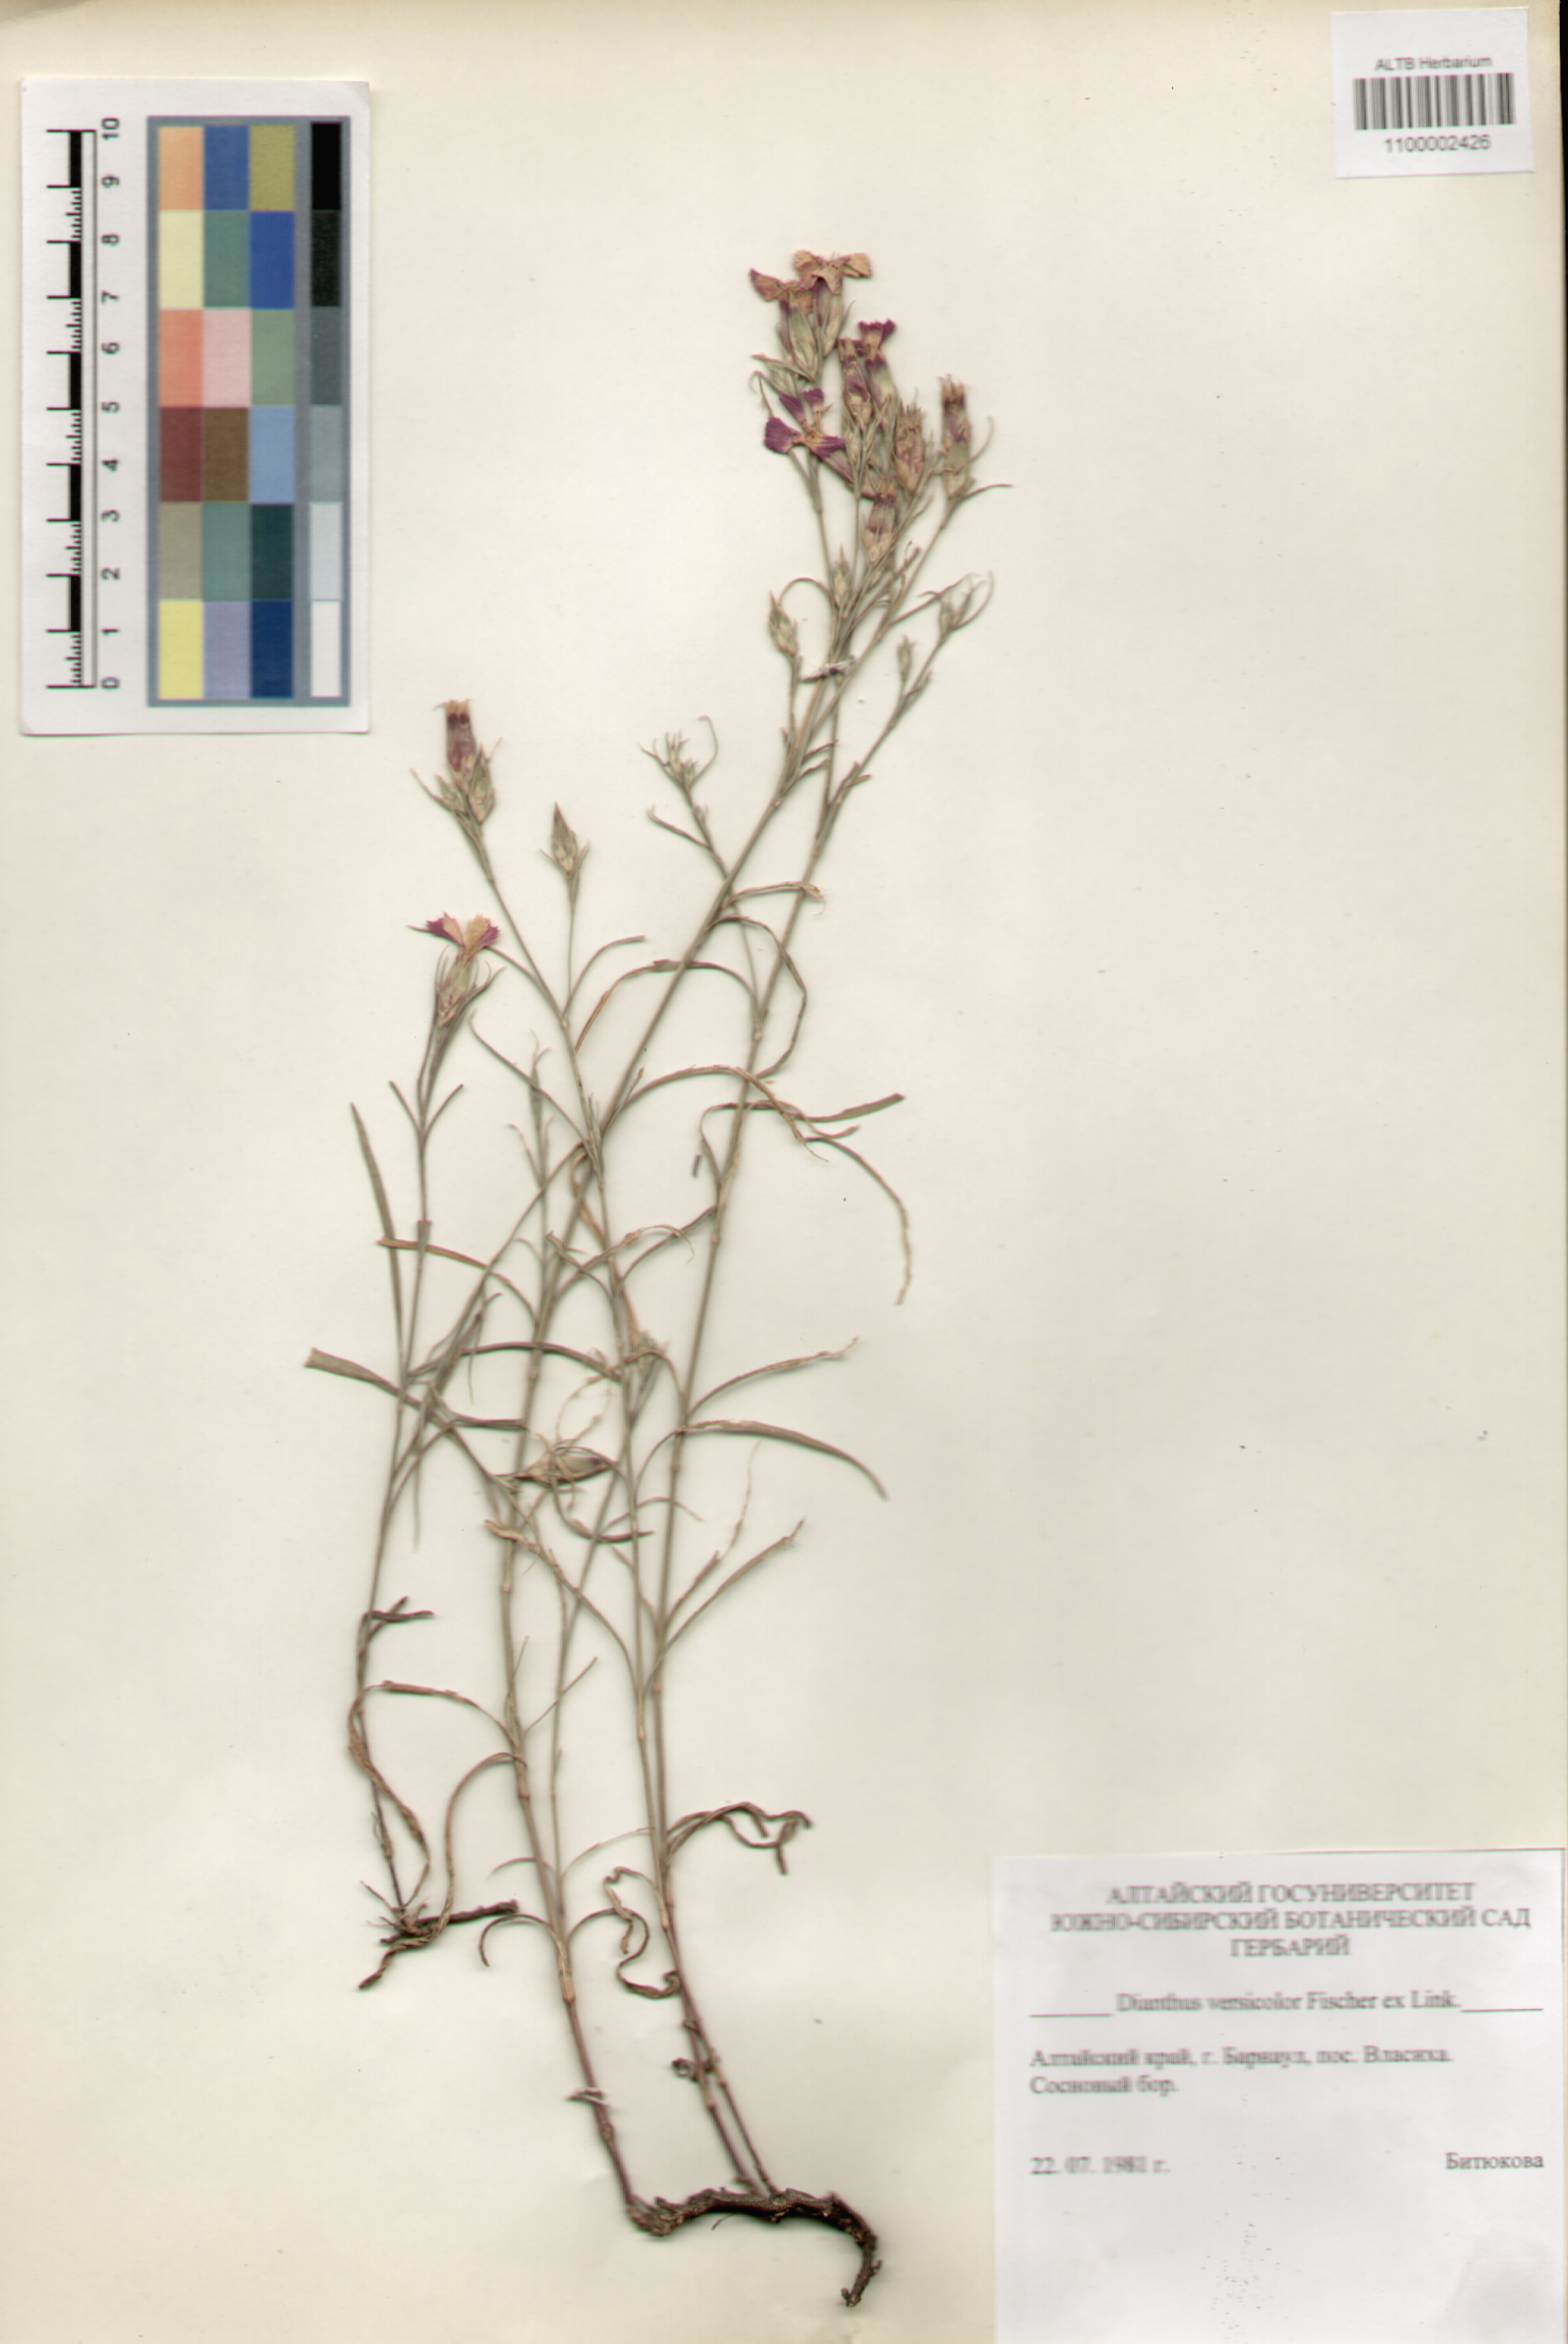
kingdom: Plantae
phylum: Tracheophyta
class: Magnoliopsida
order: Caryophyllales
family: Caryophyllaceae
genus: Dianthus
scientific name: Dianthus chinensis
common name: Rainbow pink
